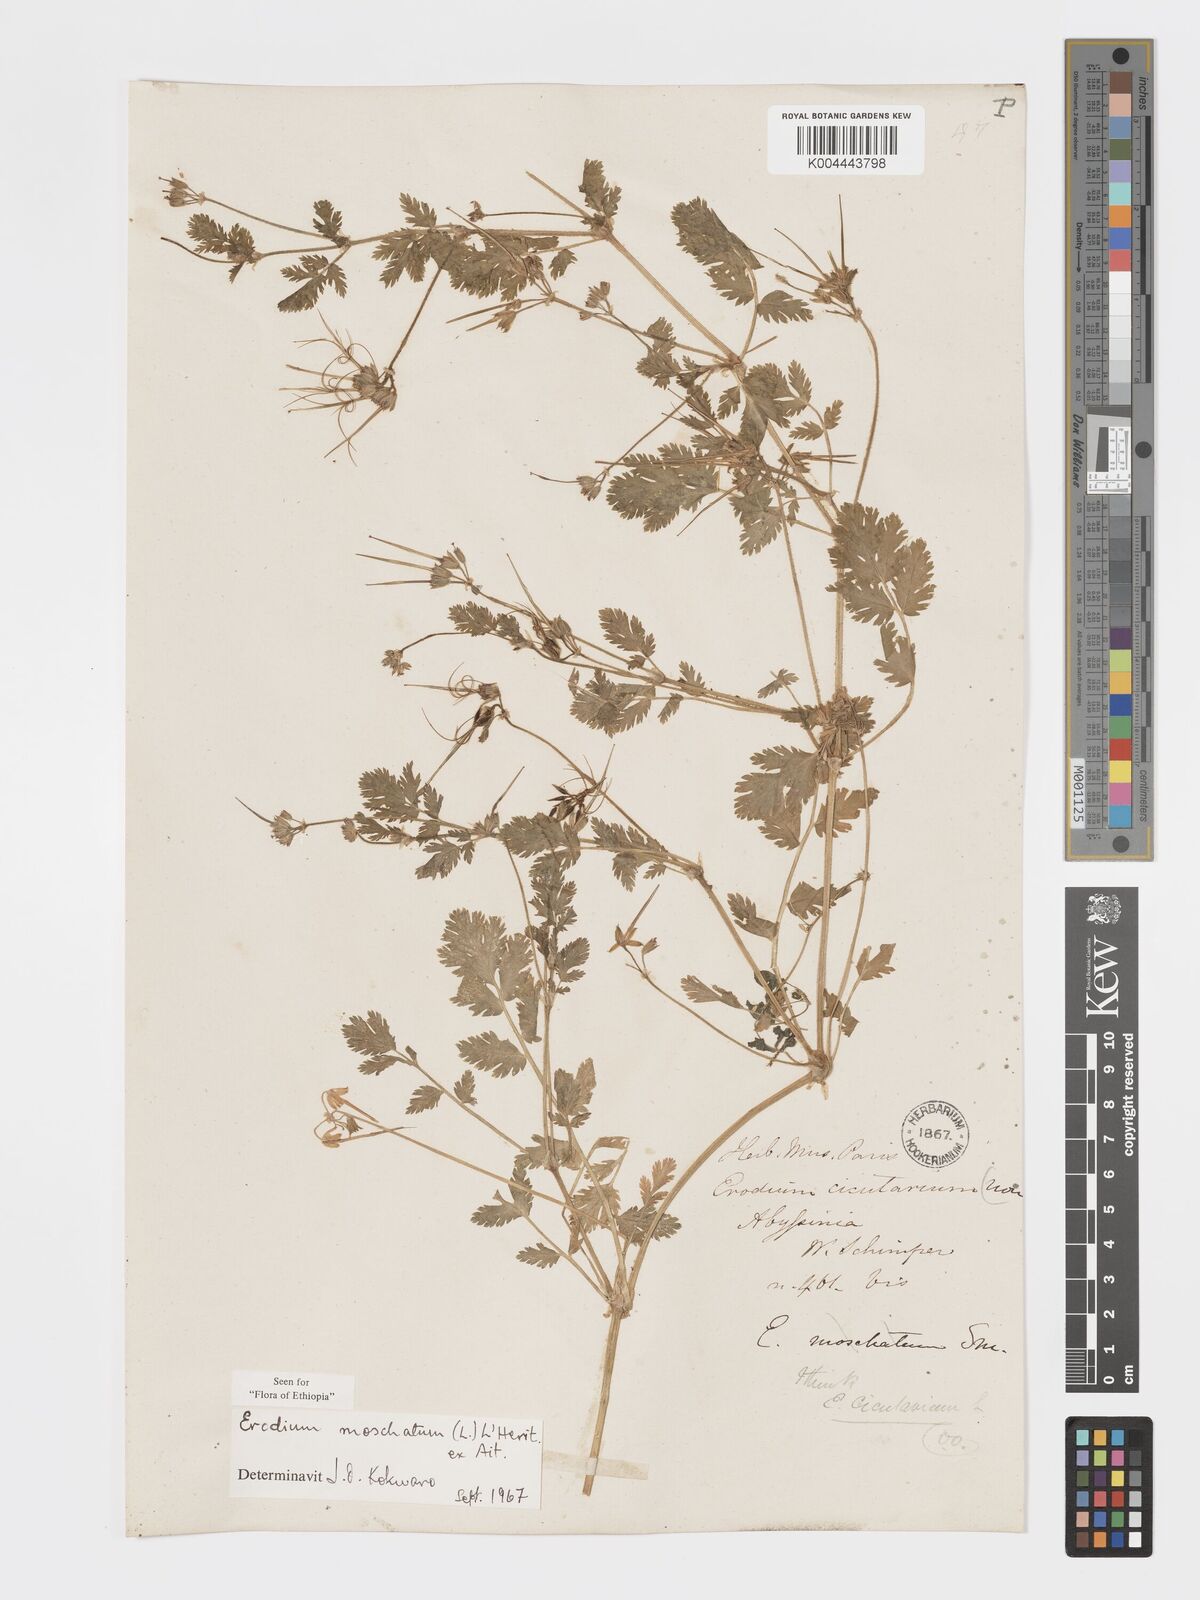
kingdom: Plantae
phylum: Tracheophyta
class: Magnoliopsida
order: Geraniales
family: Geraniaceae
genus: Erodium
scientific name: Erodium moschatum
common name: Musk stork's-bill
